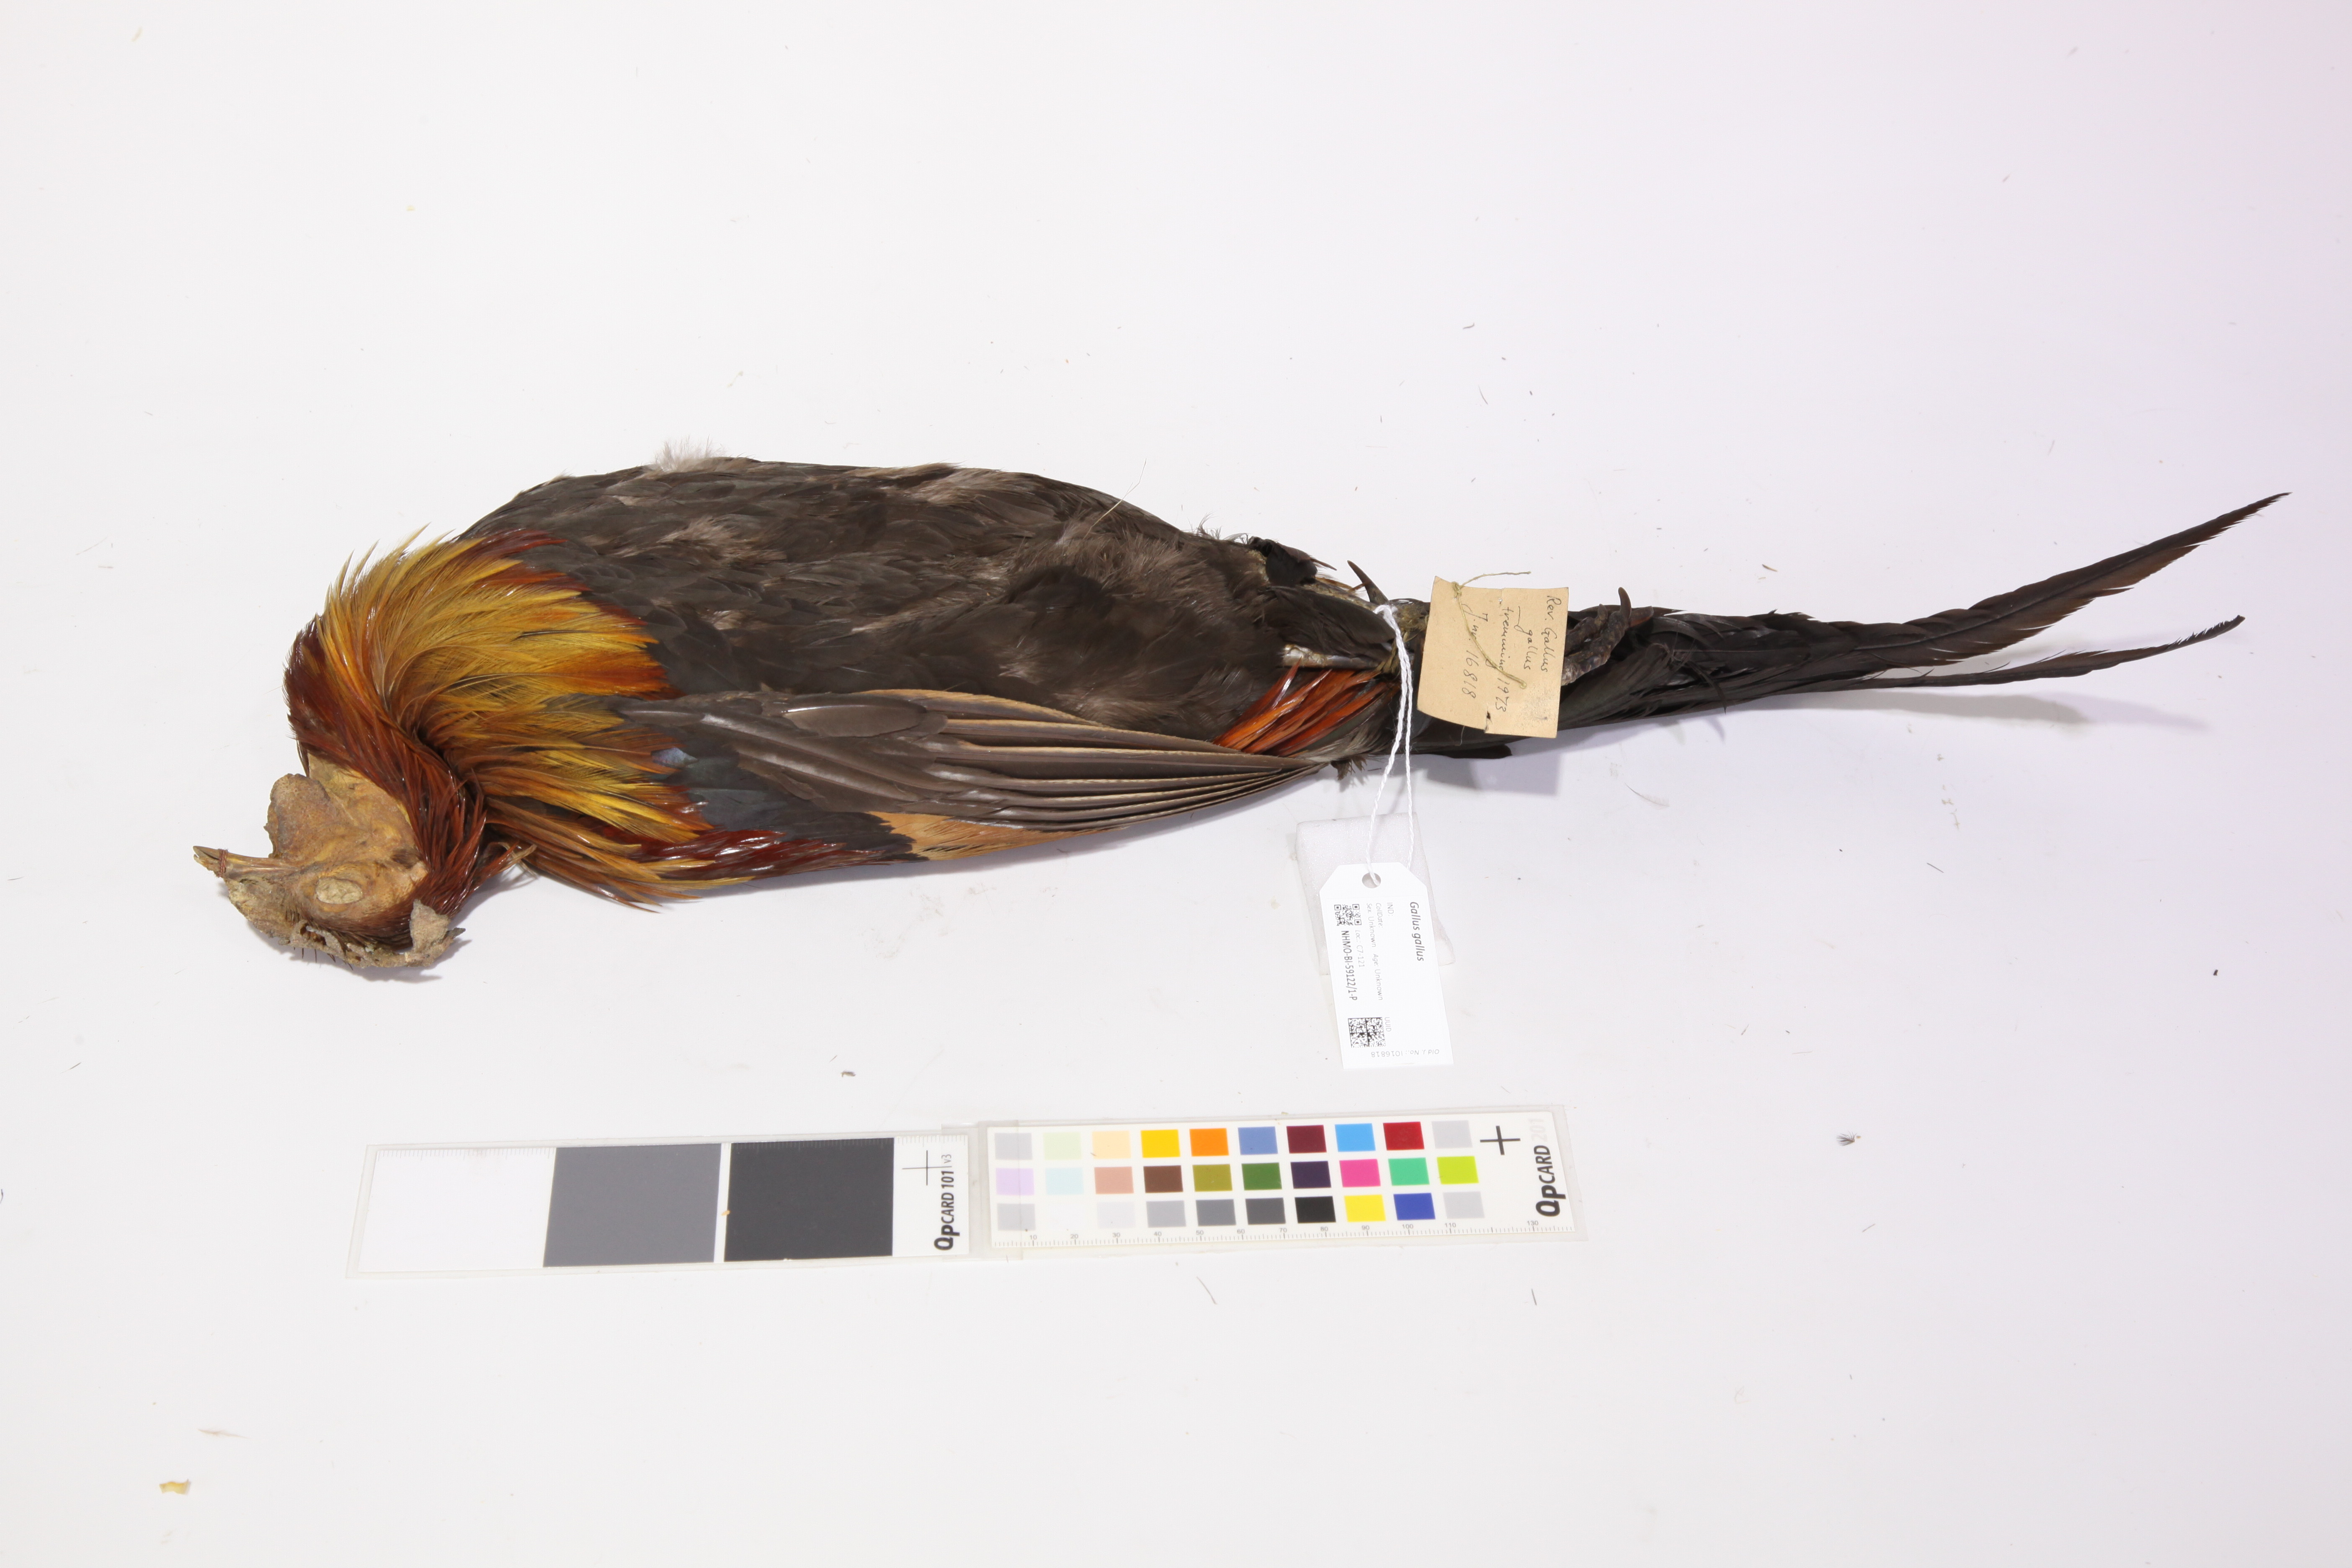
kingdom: Animalia
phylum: Chordata
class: Aves
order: Galliformes
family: Phasianidae
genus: Gallus
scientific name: Gallus gallus
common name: Red junglefowl
